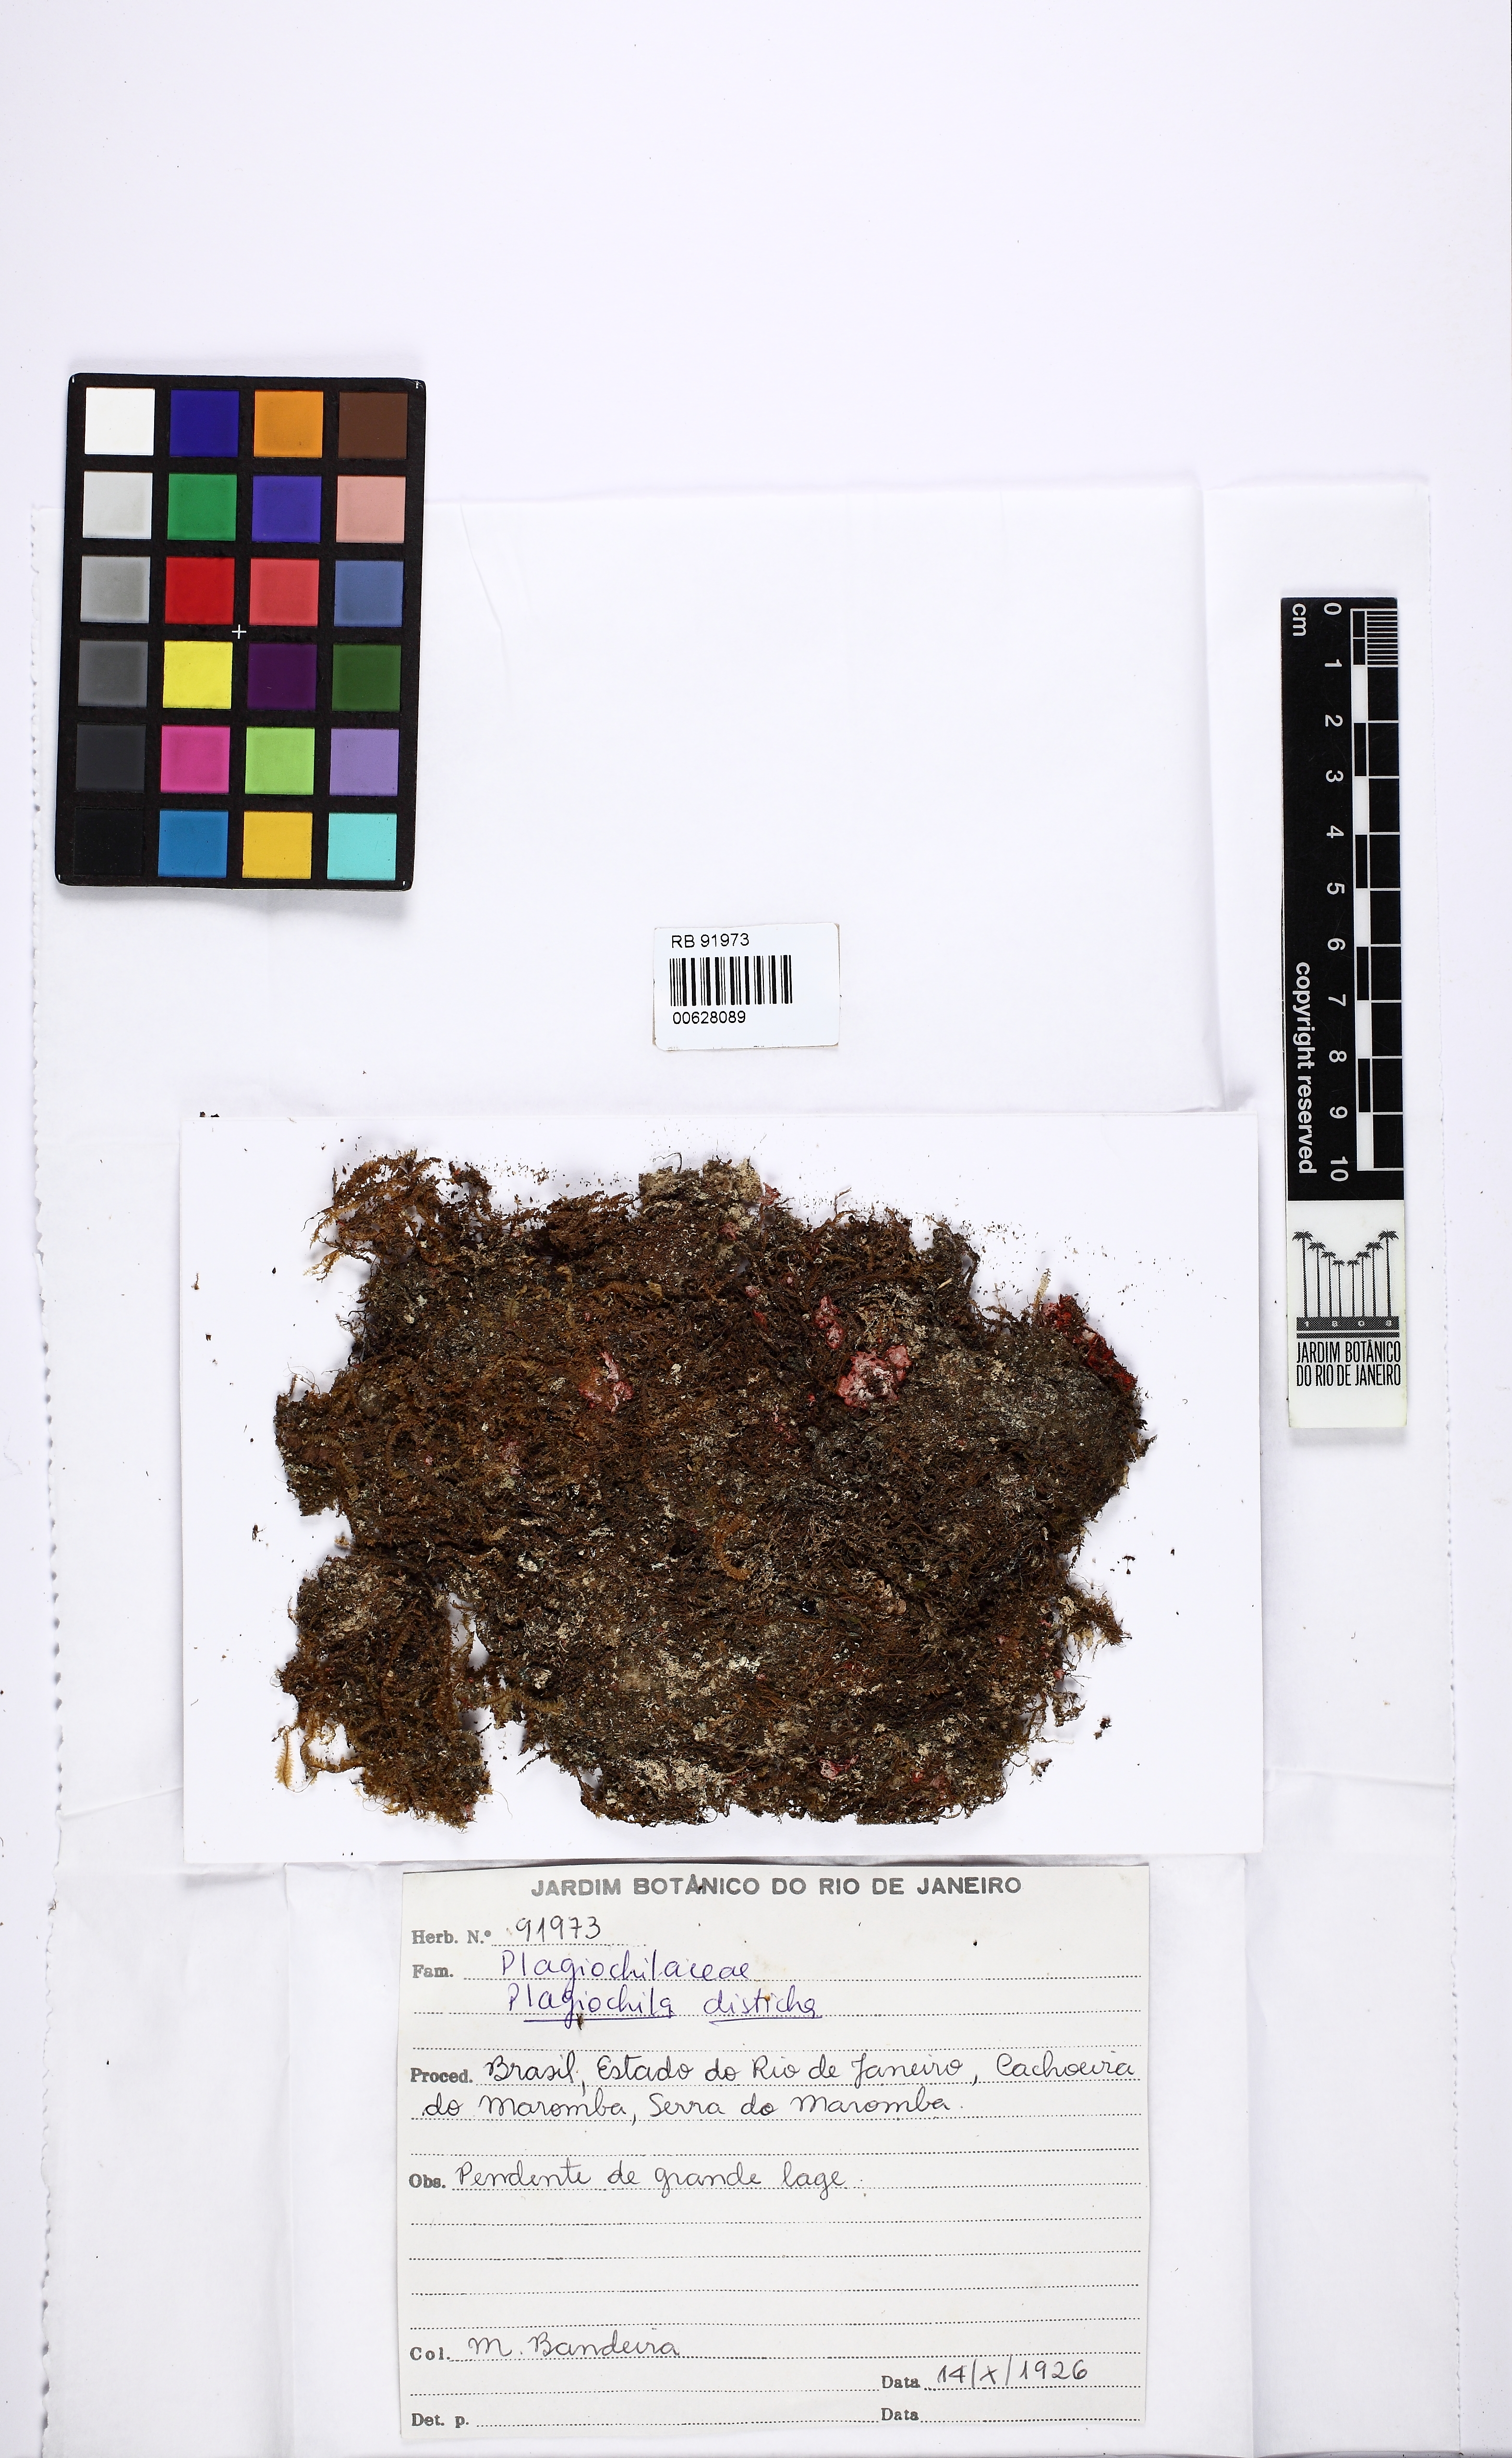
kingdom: Plantae
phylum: Marchantiophyta
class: Jungermanniopsida
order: Jungermanniales
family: Plagiochilaceae
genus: Plagiochila
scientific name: Plagiochila disticha
